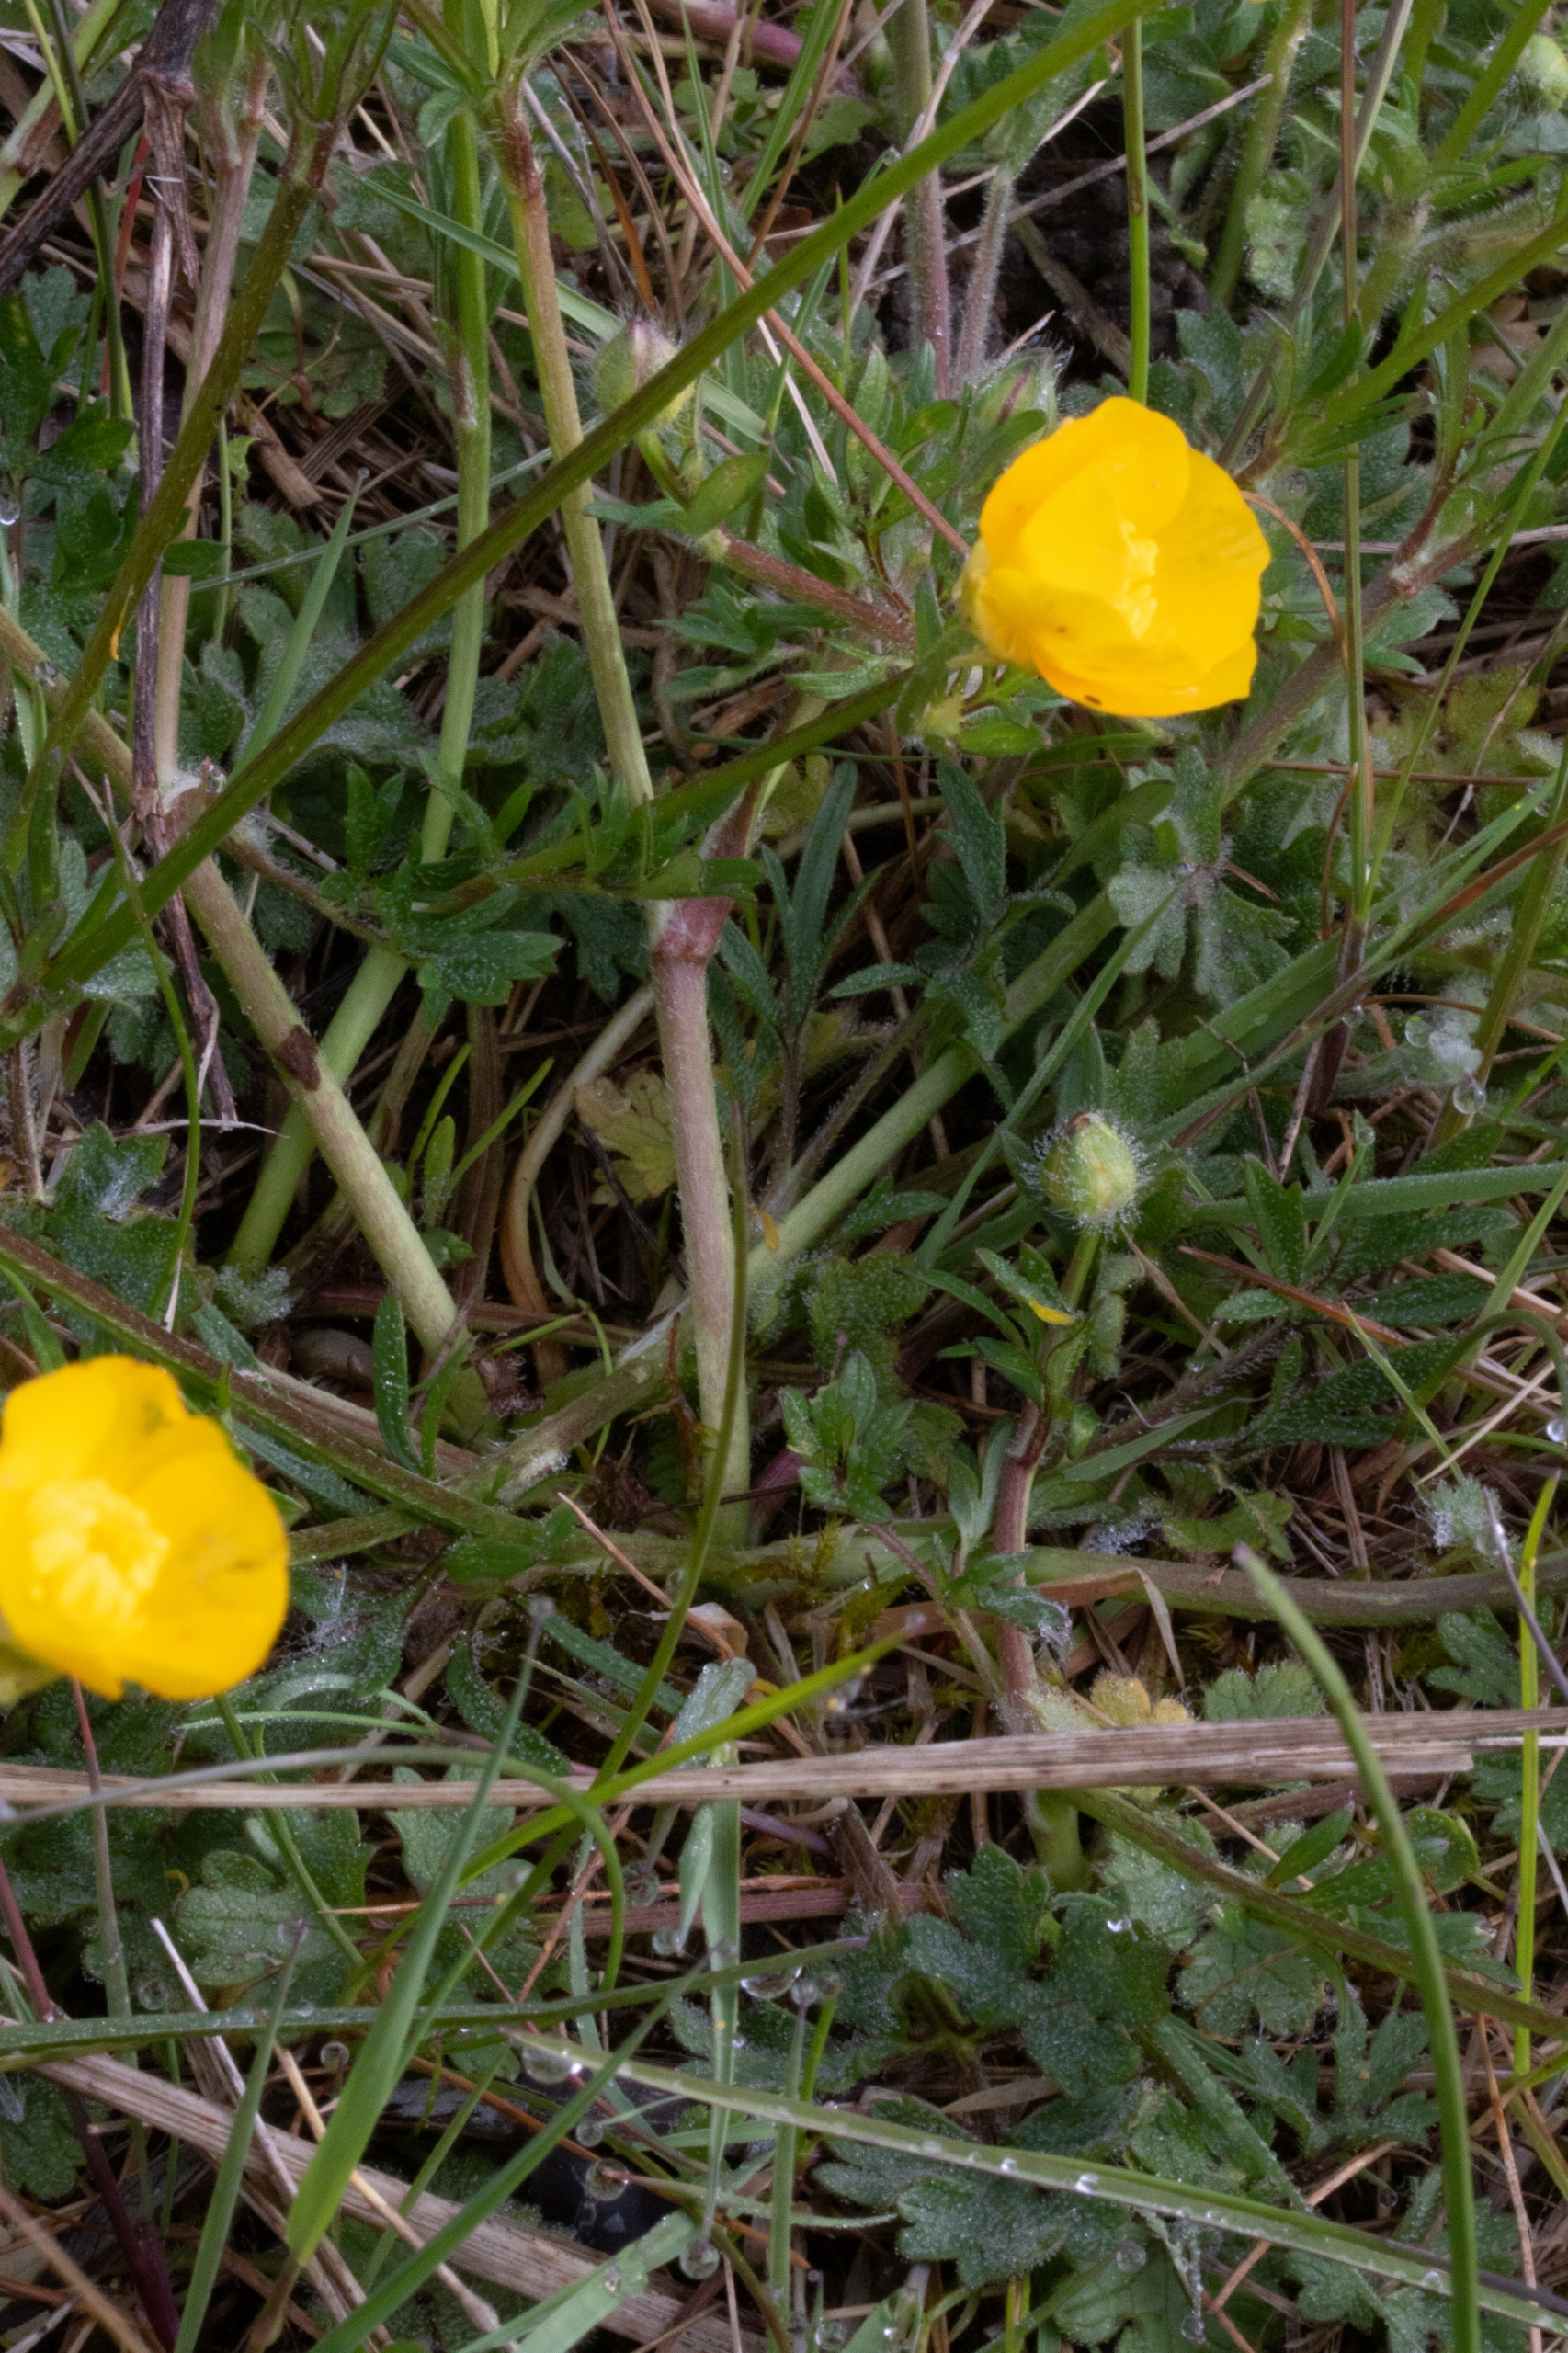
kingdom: Plantae
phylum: Tracheophyta
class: Magnoliopsida
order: Ranunculales
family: Ranunculaceae
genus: Ranunculus
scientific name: Ranunculus bulbosus
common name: Knold-ranunkel
